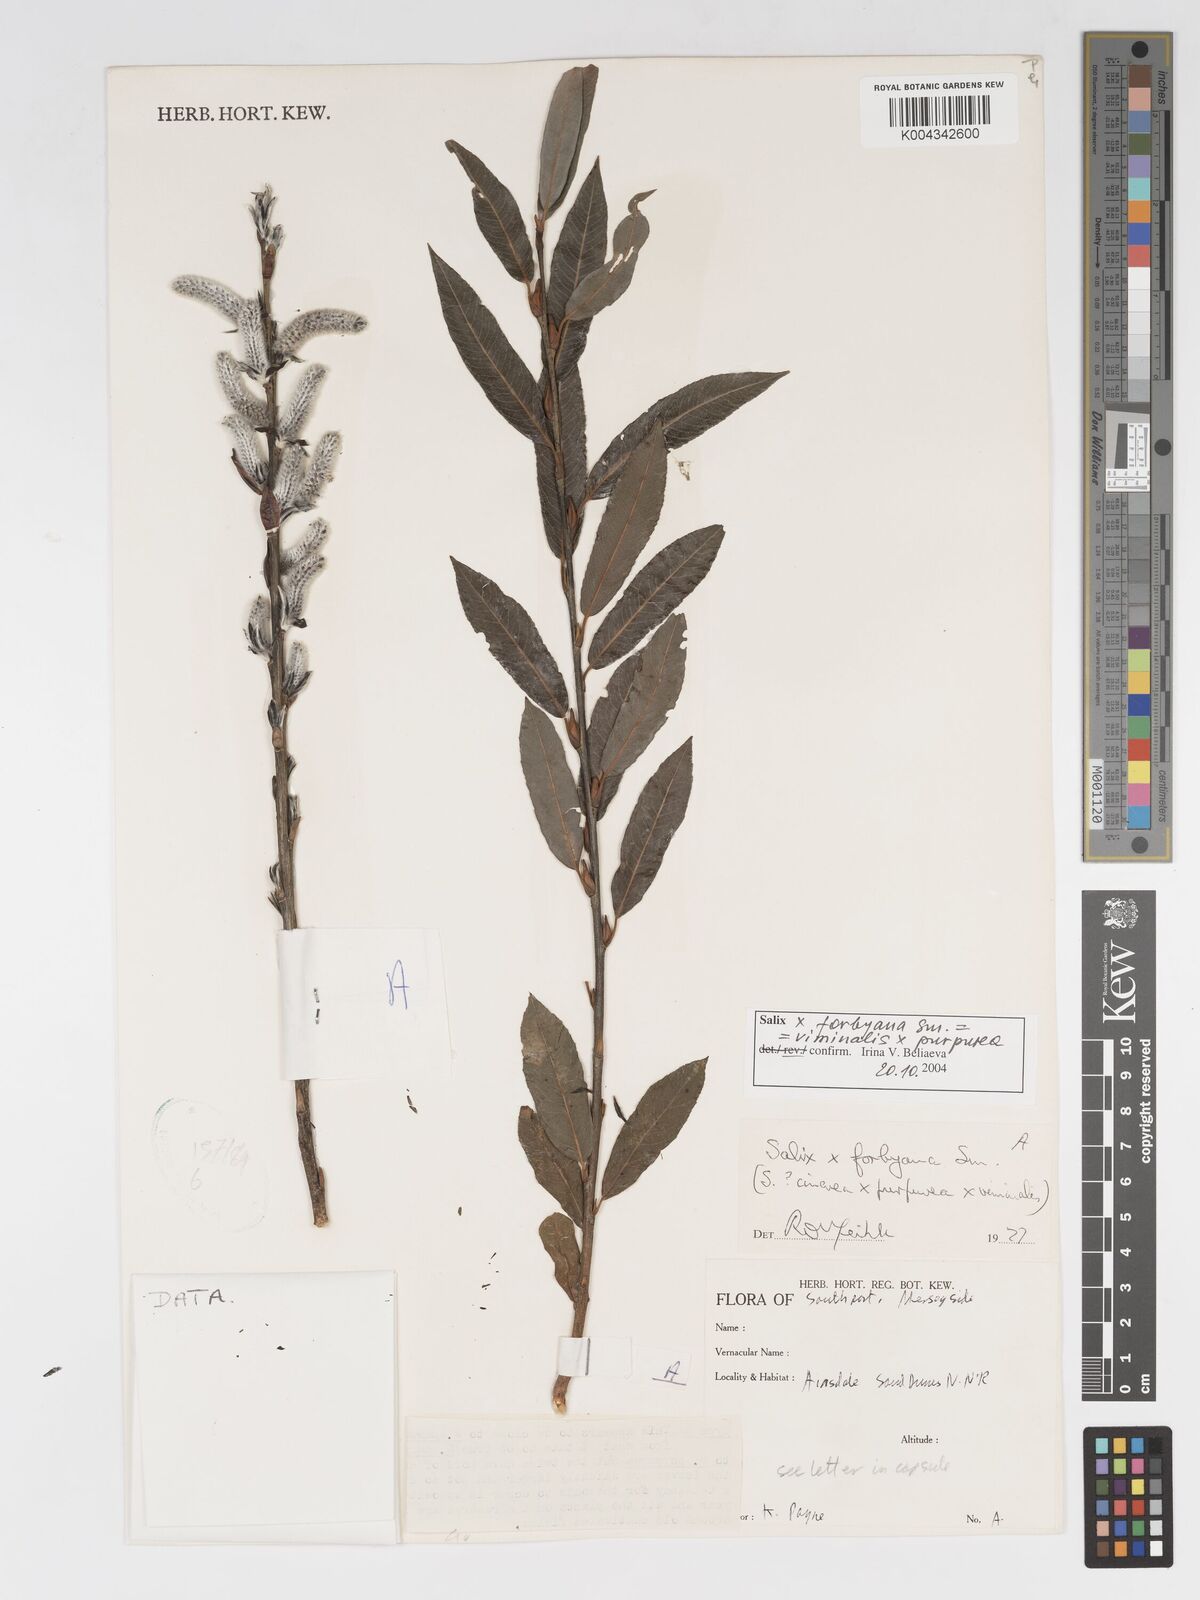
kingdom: Plantae
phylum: Tracheophyta
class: Magnoliopsida
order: Malpighiales
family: Salicaceae
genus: Salix
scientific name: Salix cinerea
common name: Common sallow
